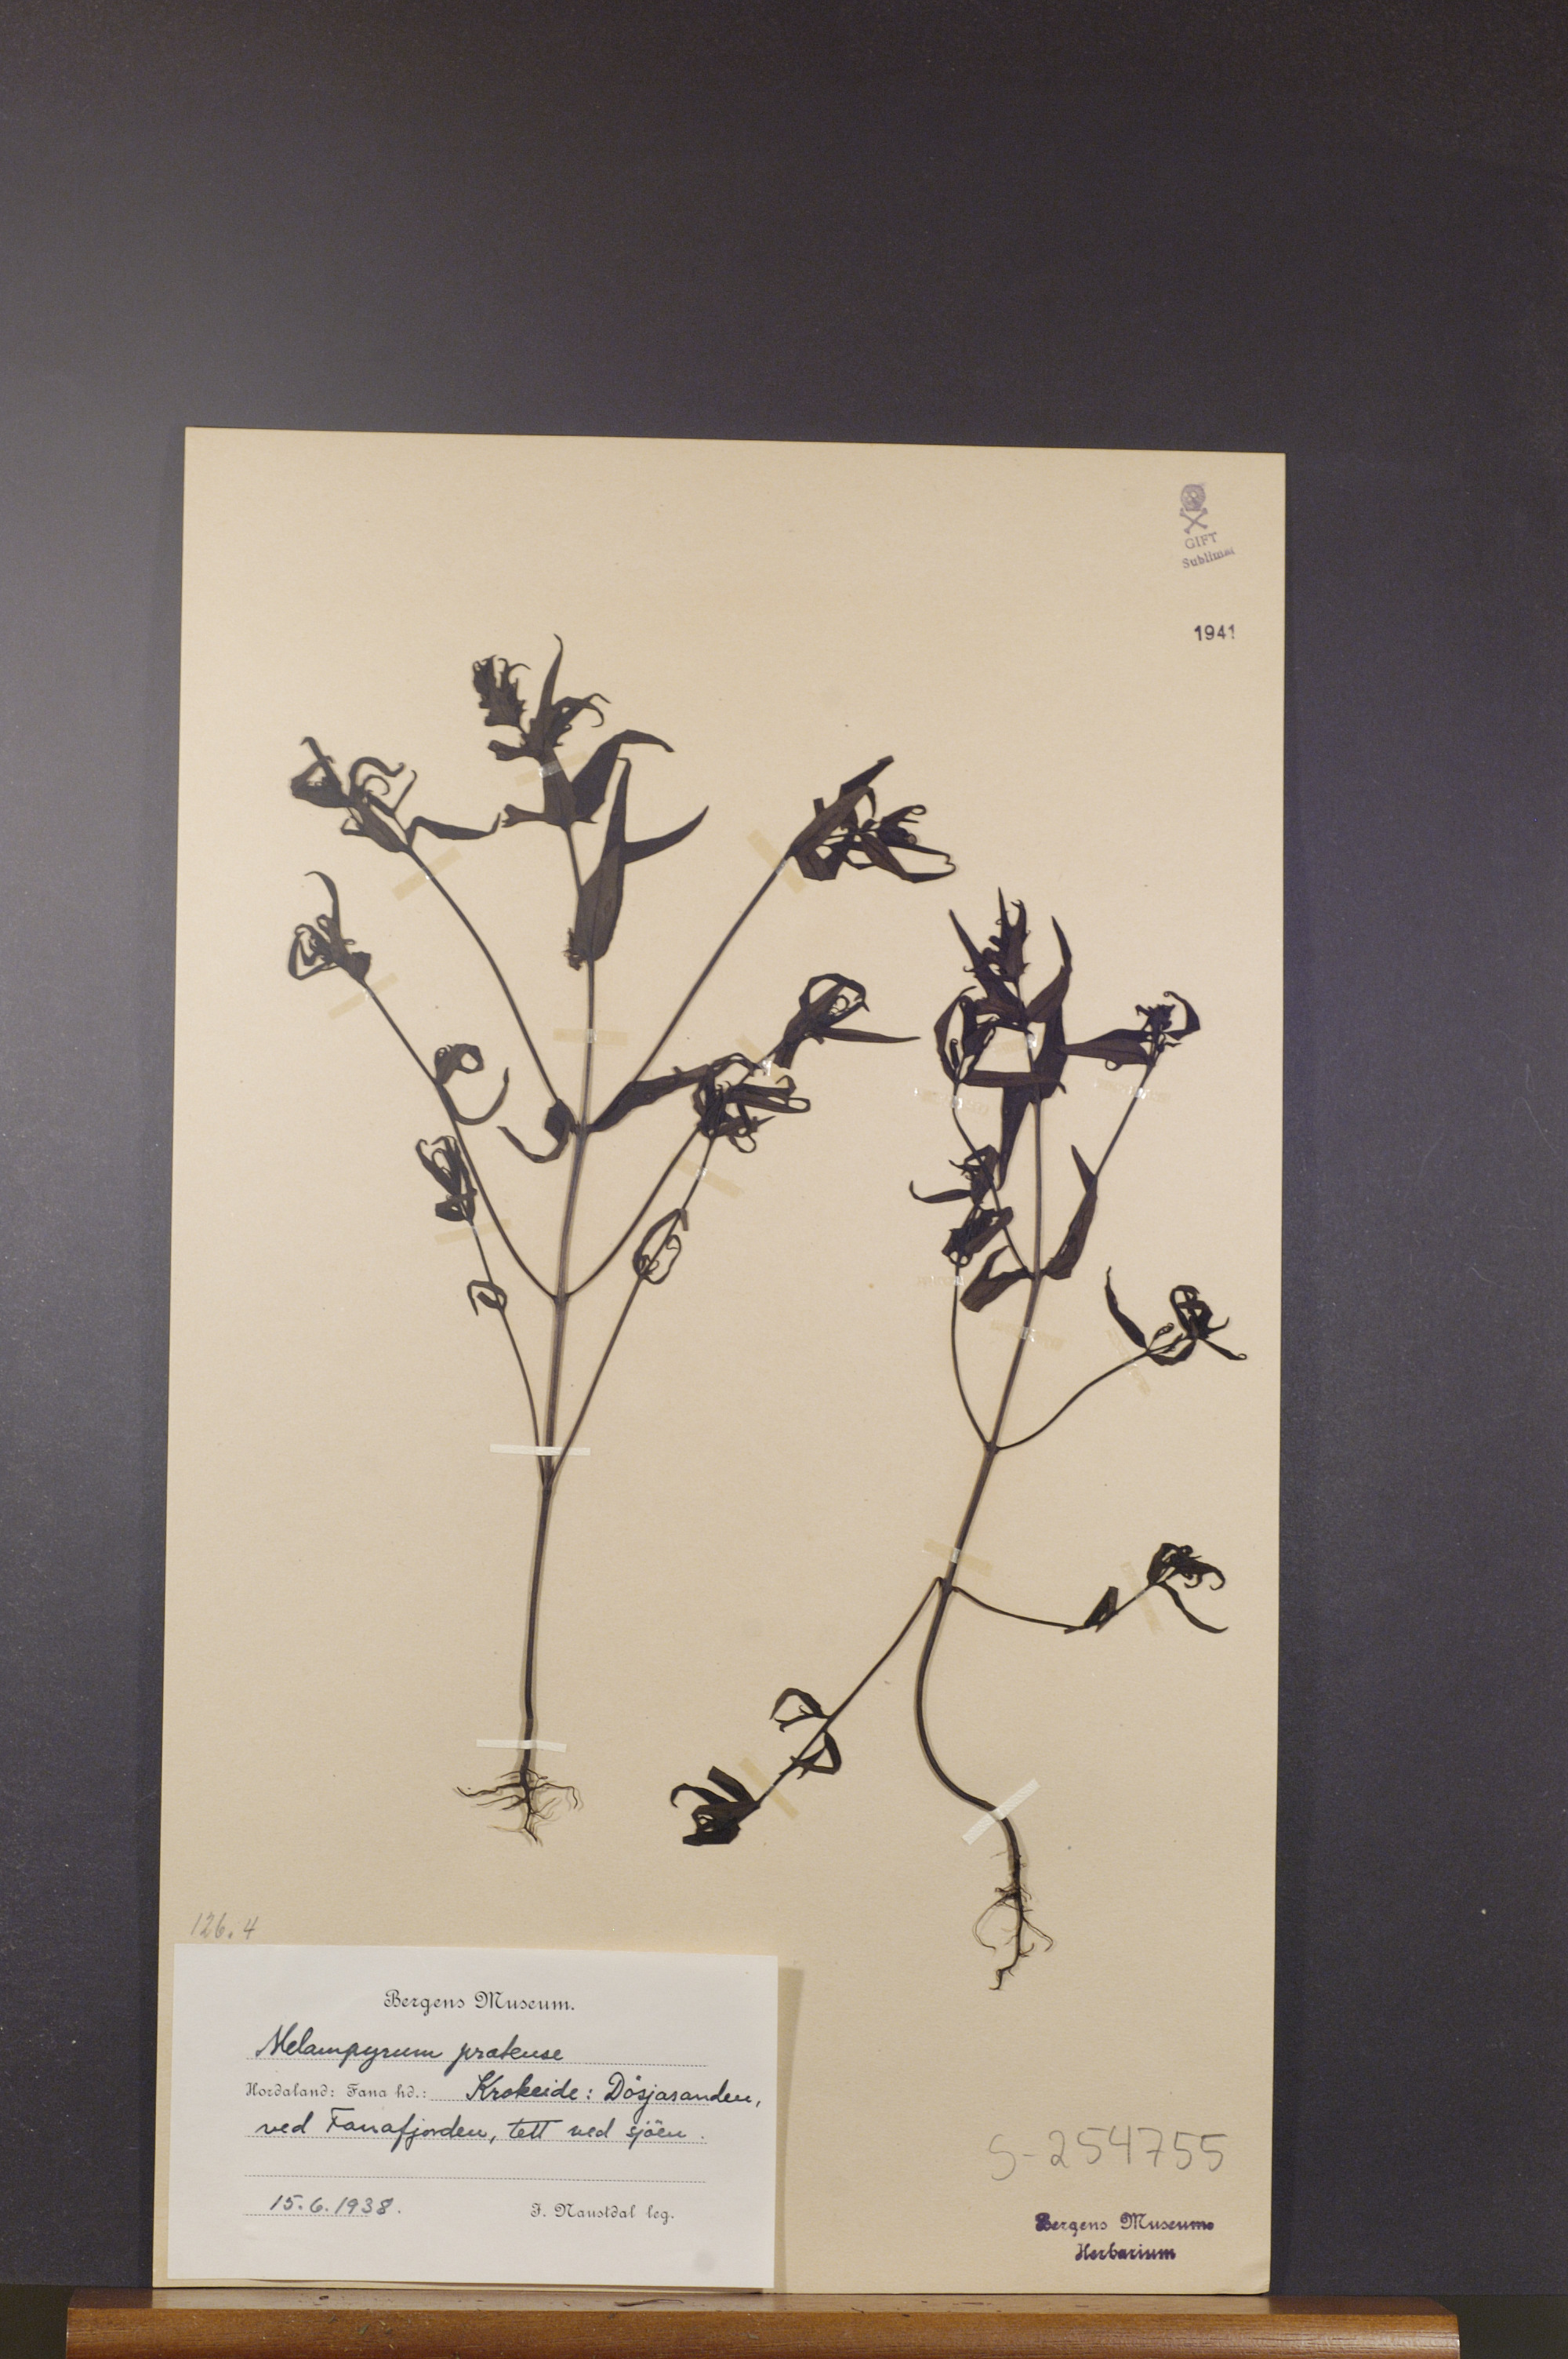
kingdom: Plantae
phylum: Tracheophyta
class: Magnoliopsida
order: Lamiales
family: Orobanchaceae
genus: Melampyrum
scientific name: Melampyrum pratense
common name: Common cow-wheat
